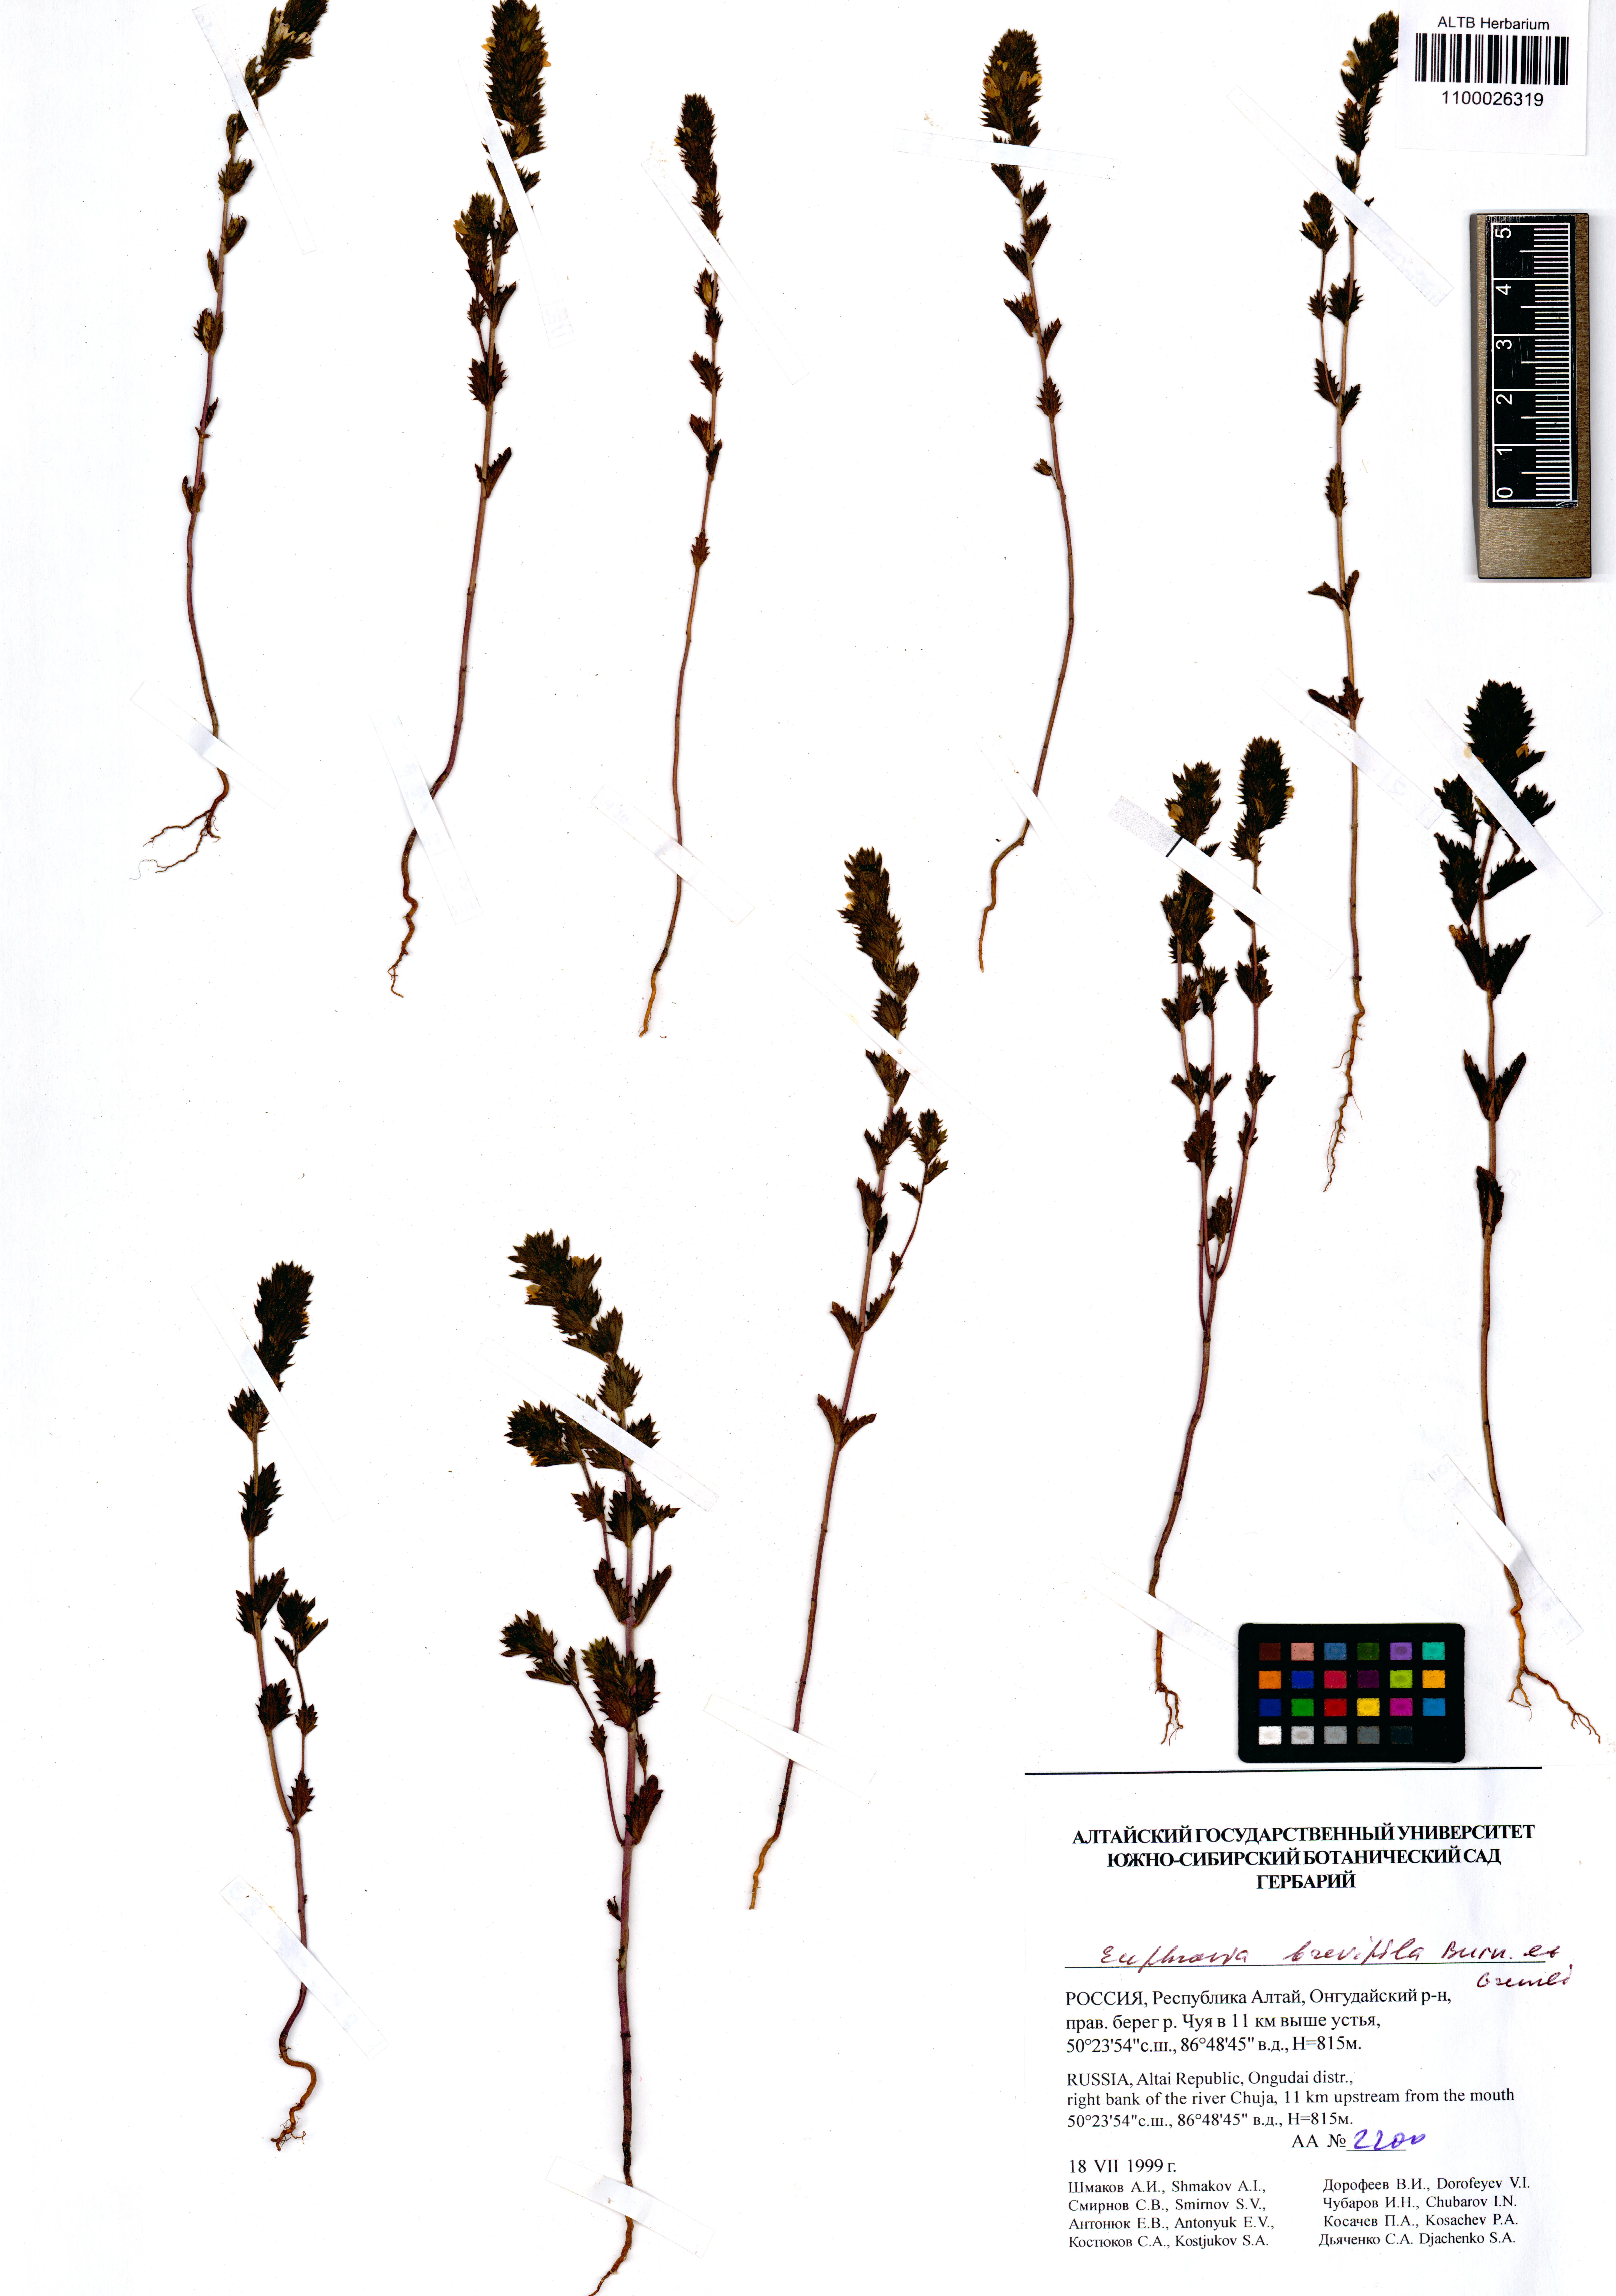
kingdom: Plantae
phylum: Tracheophyta
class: Magnoliopsida
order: Lamiales
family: Orobanchaceae
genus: Euphrasia
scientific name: Euphrasia vernalis
